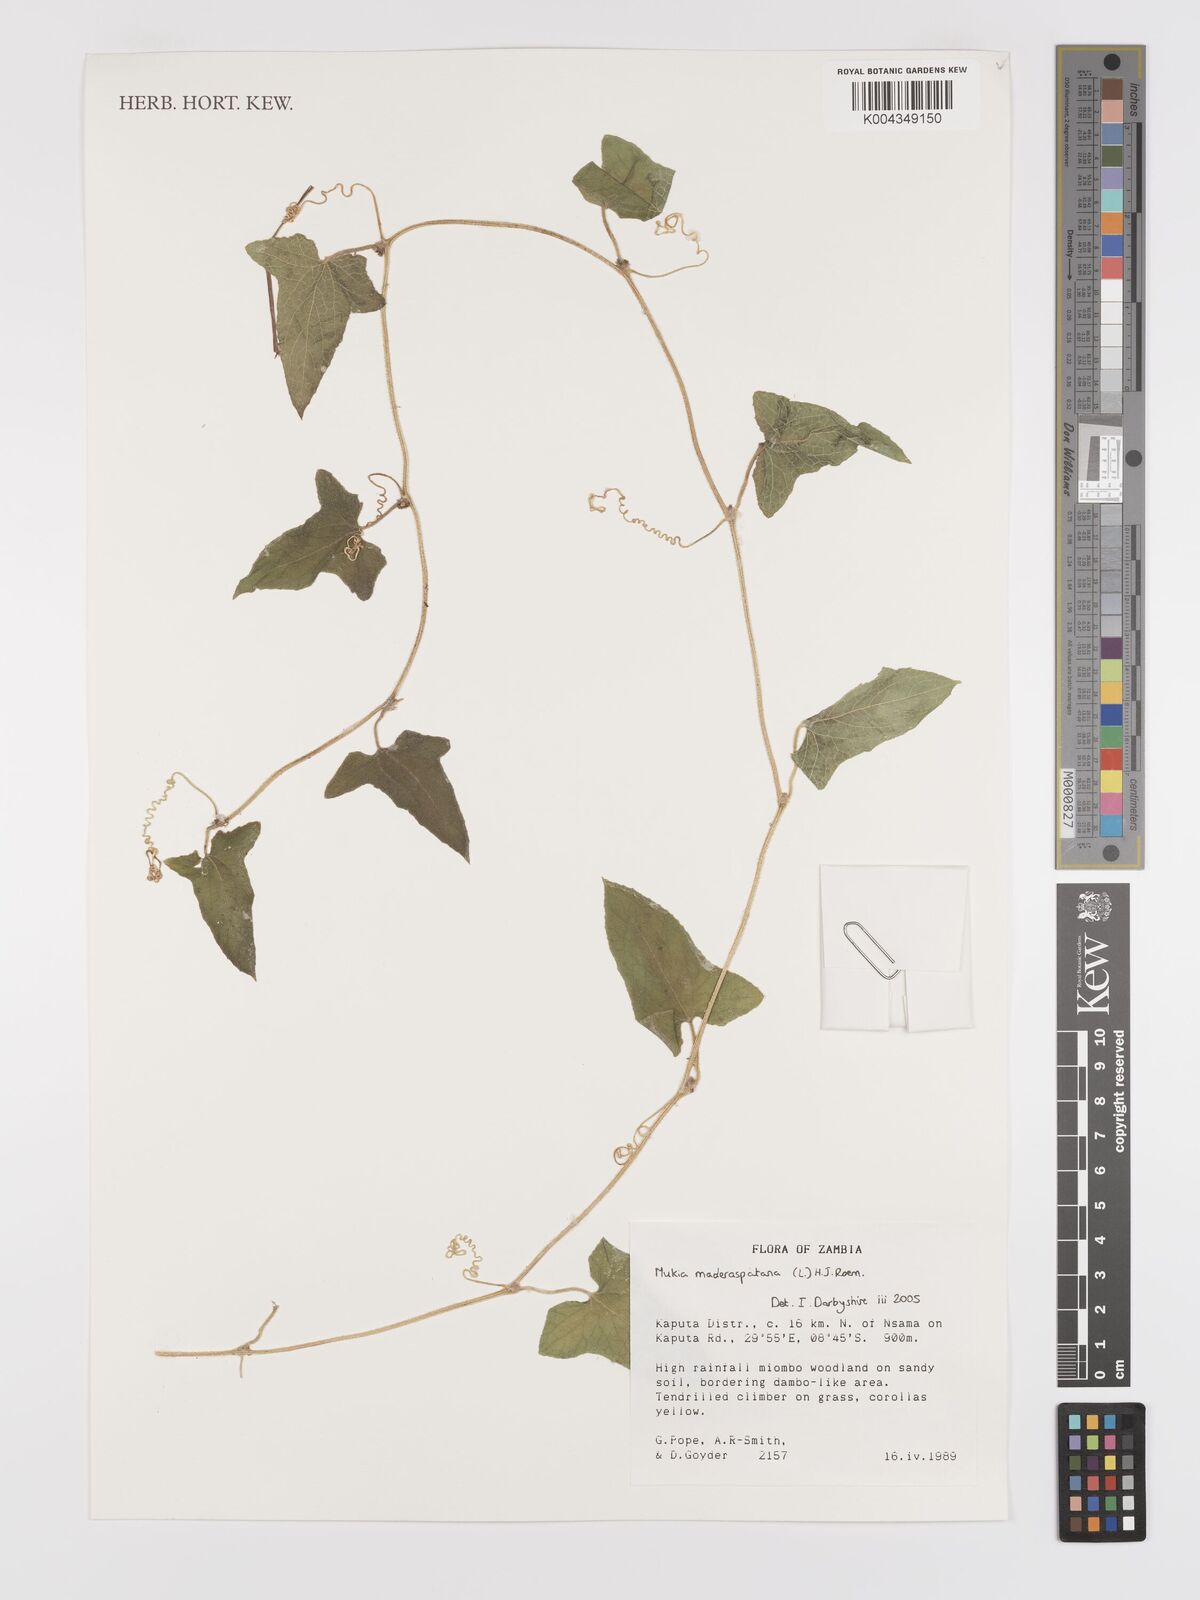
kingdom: Plantae
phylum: Tracheophyta
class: Magnoliopsida
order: Cucurbitales
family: Cucurbitaceae
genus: Cucumis
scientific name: Cucumis maderaspatanus
